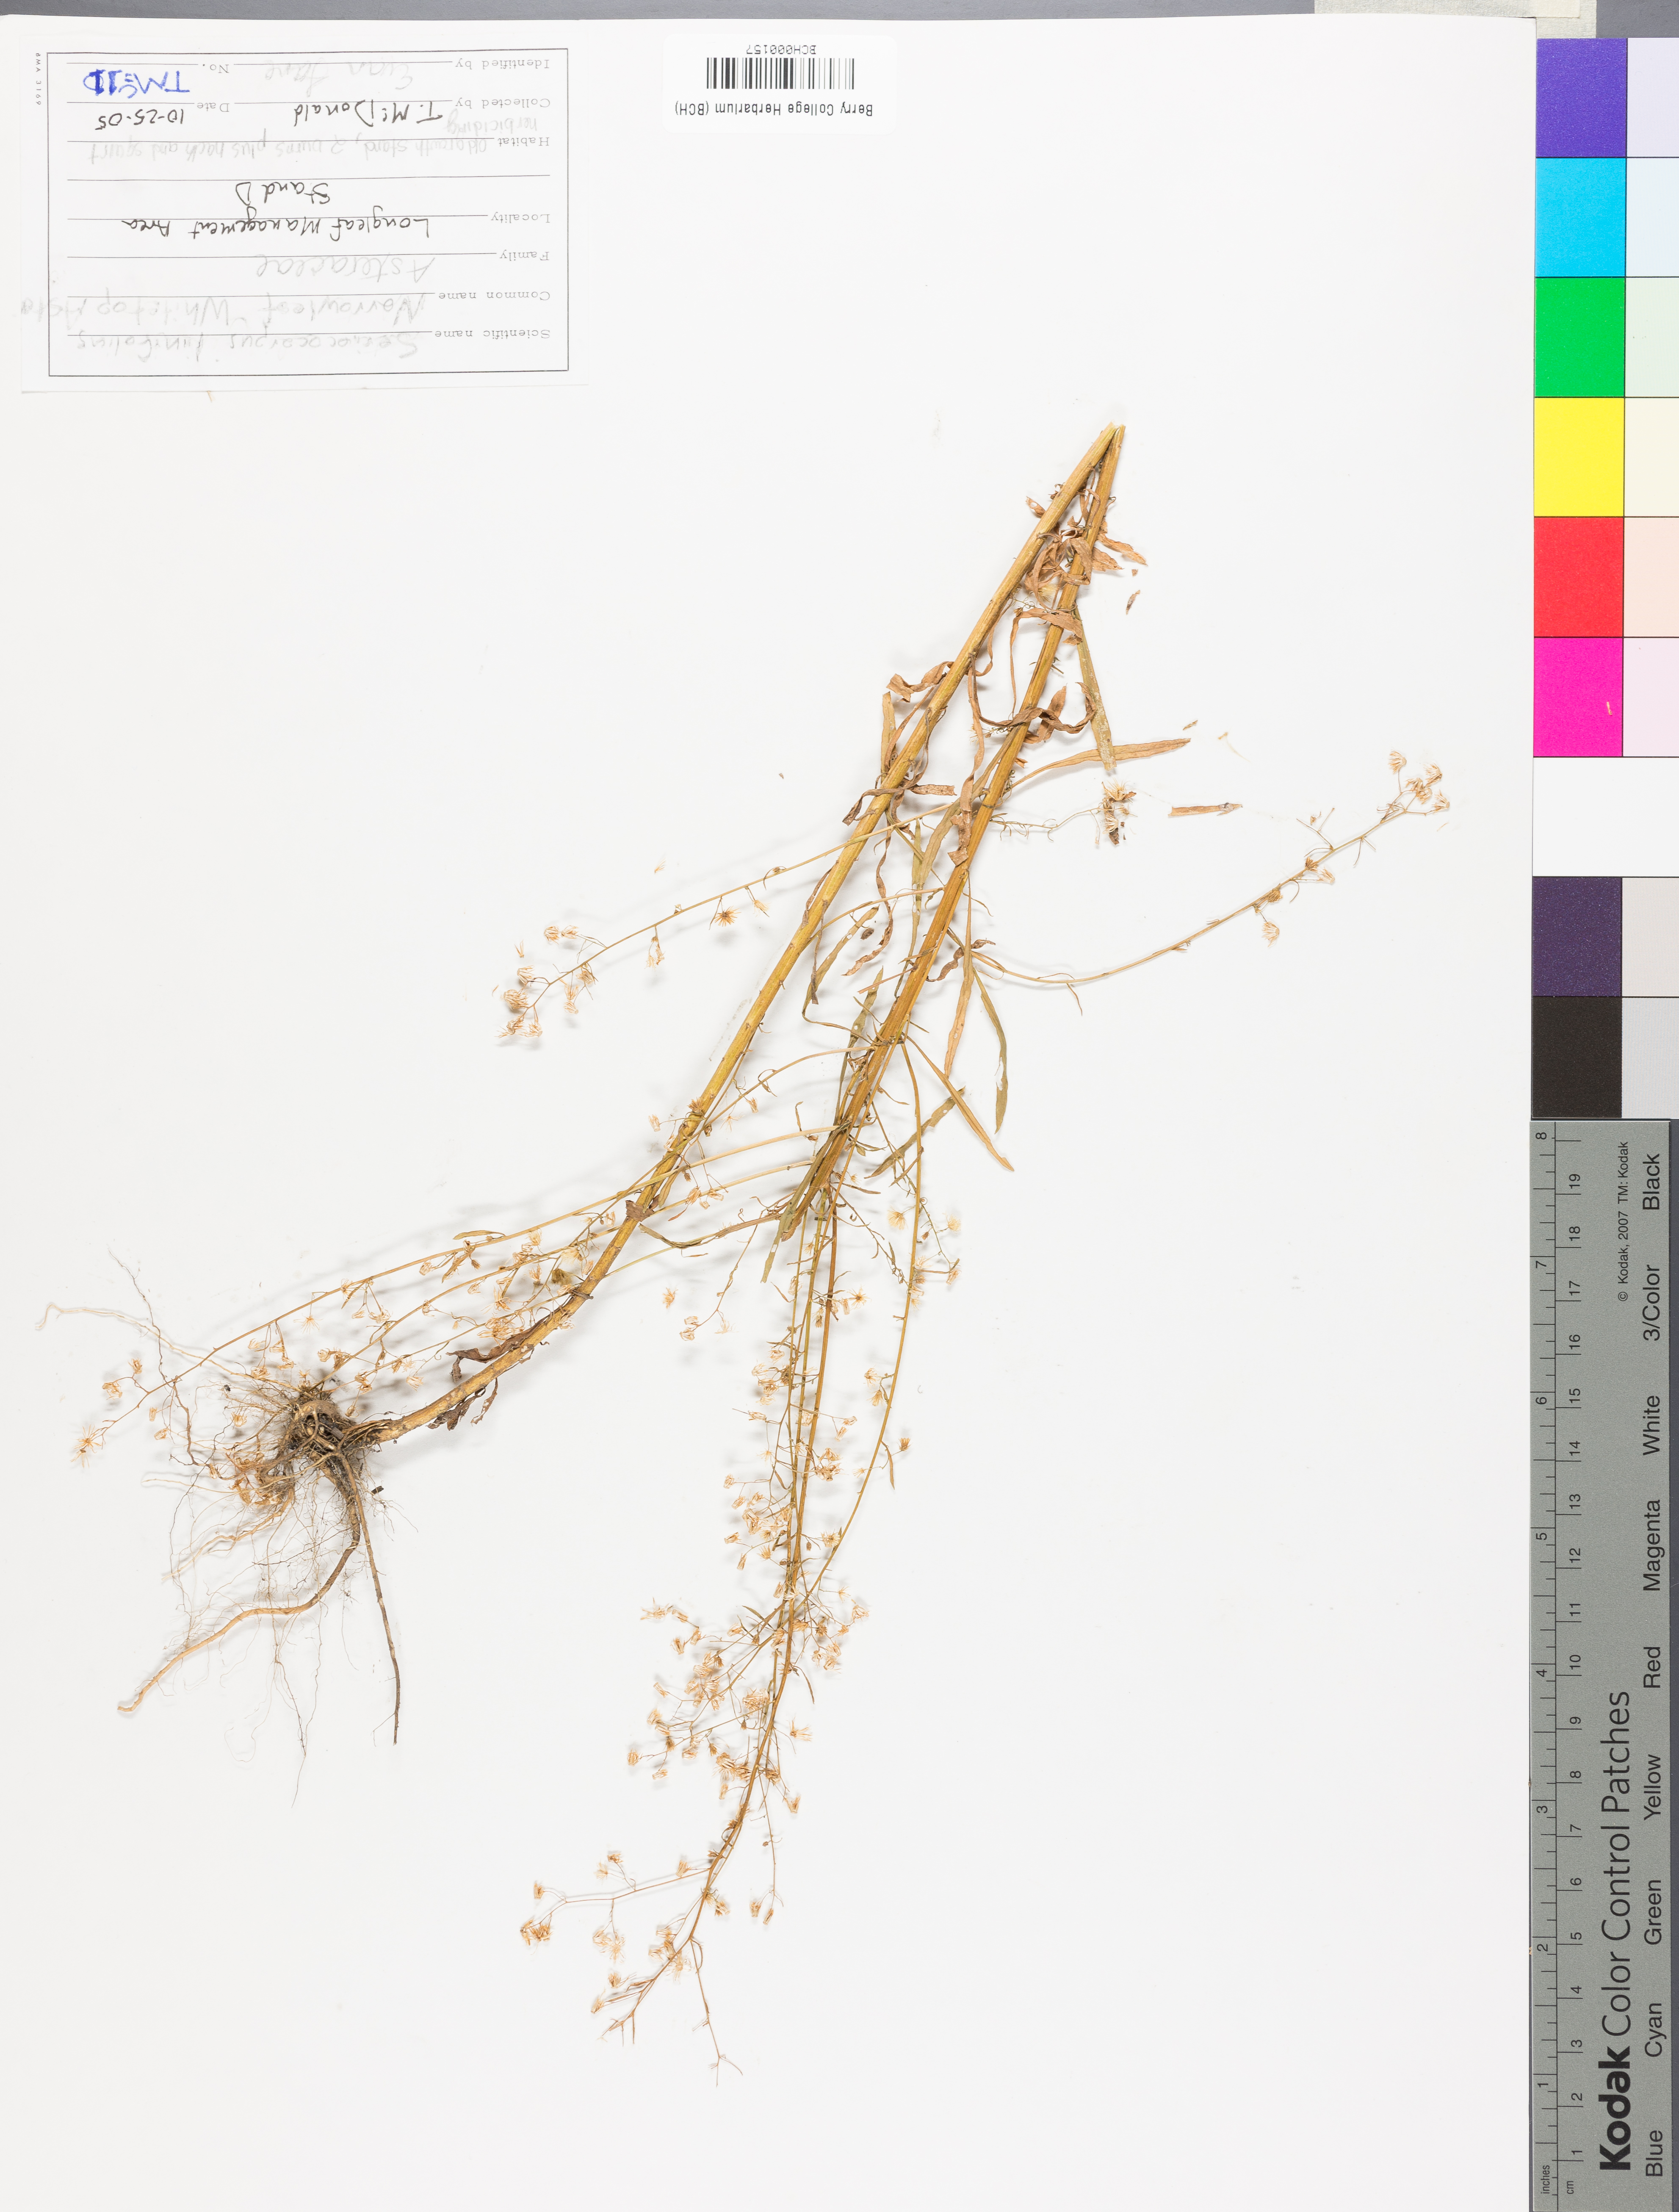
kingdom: Plantae
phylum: Tracheophyta
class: Magnoliopsida
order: Asterales
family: Asteraceae
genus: Sericocarpus
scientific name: Sericocarpus linifolius
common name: Narrow-leaf aster
